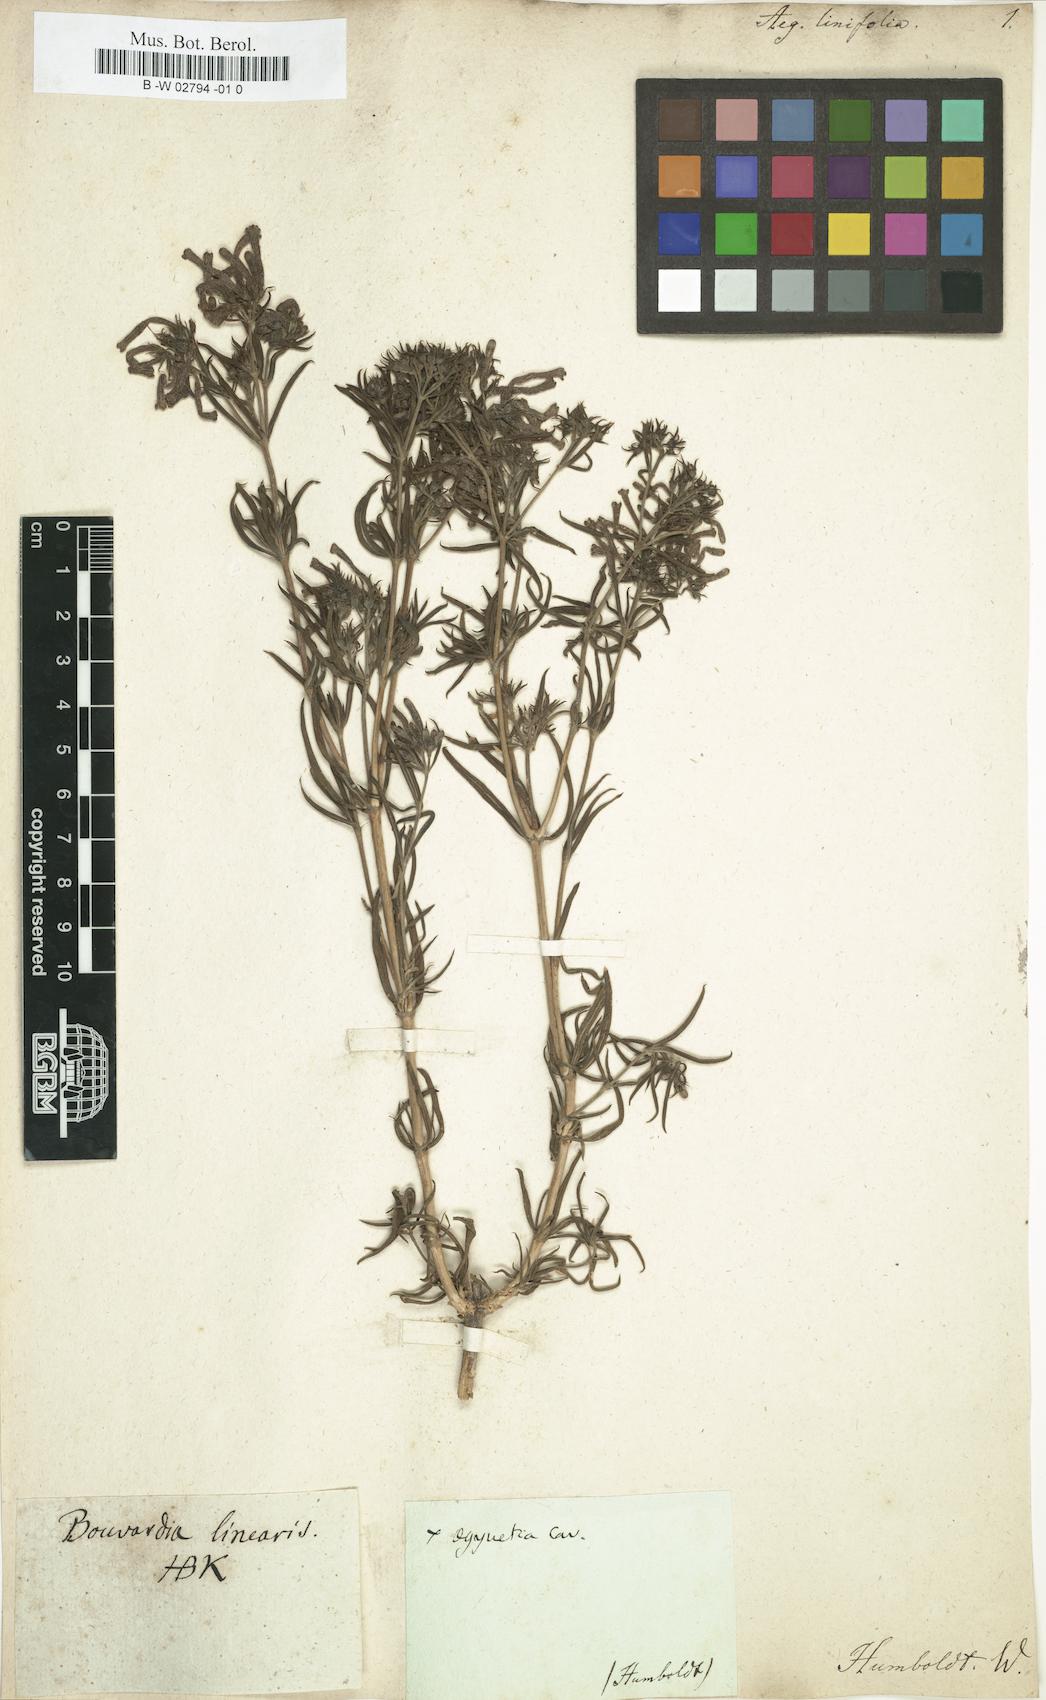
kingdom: Plantae
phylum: Tracheophyta
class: Magnoliopsida
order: Lamiales
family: Orobanchaceae
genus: Aeginetia
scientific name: Aeginetia
